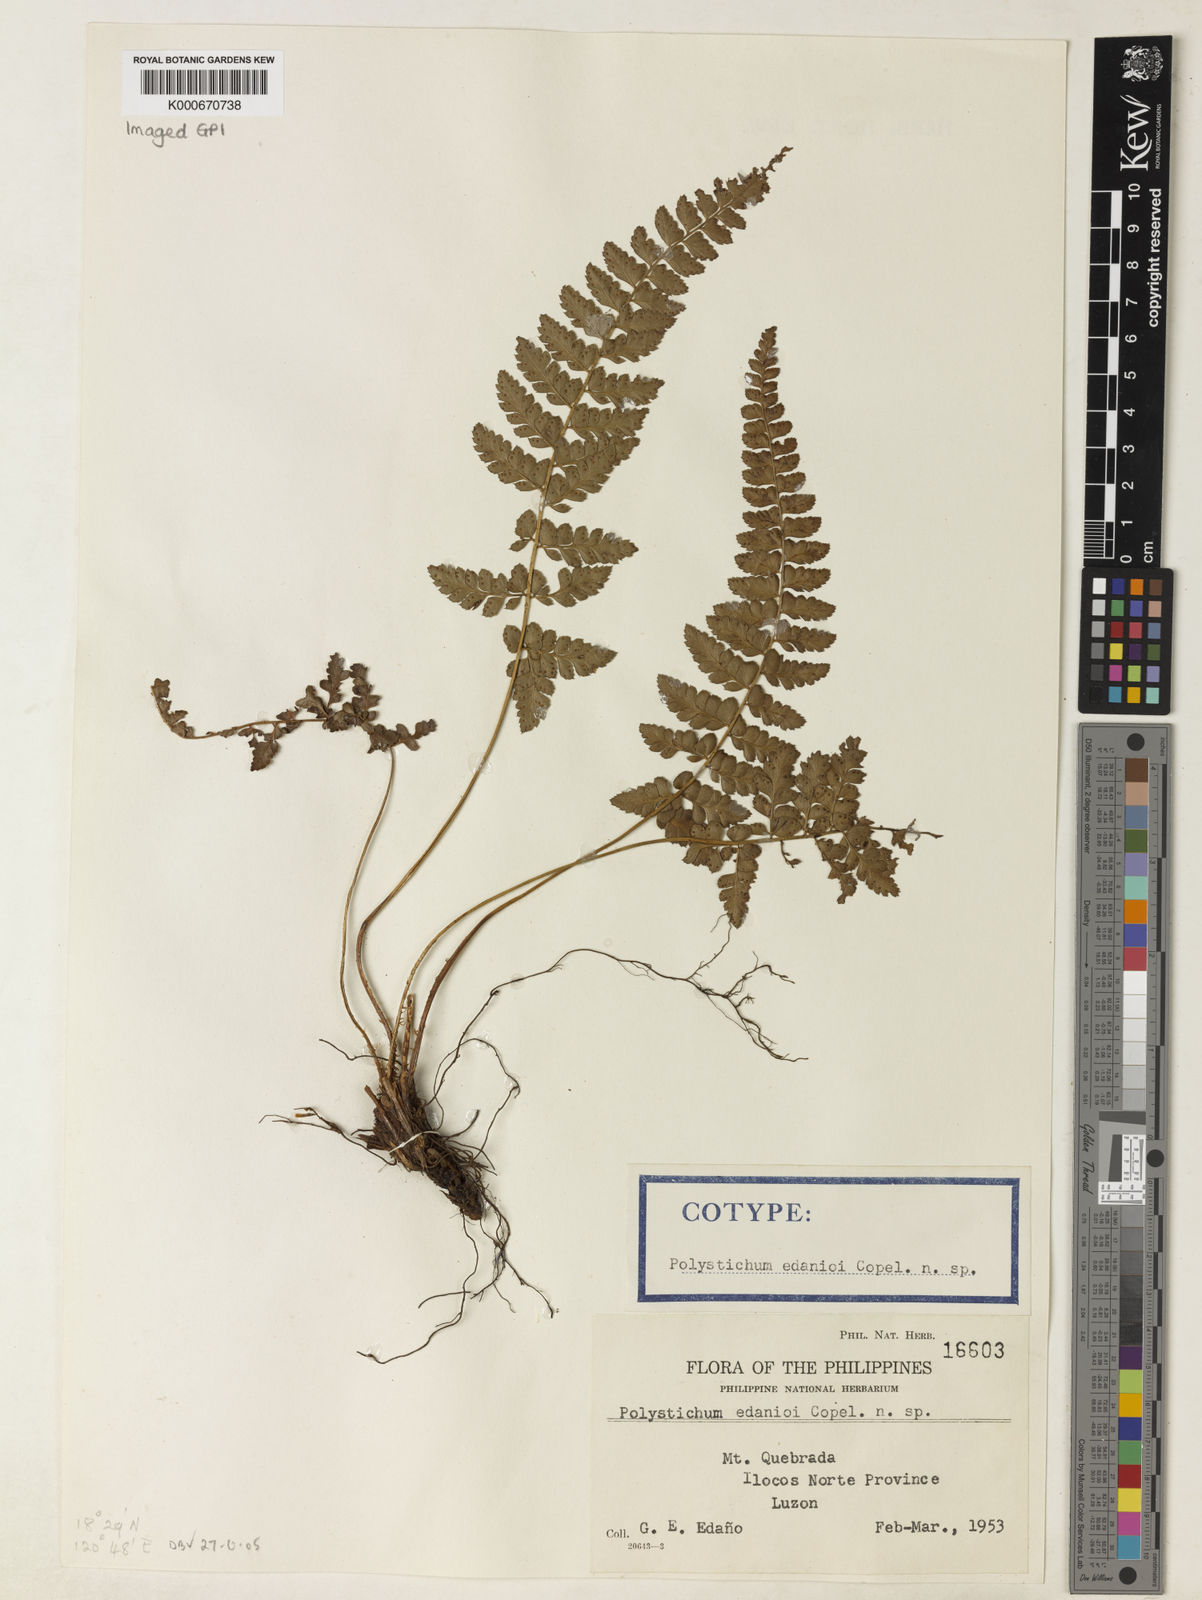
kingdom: Plantae
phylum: Tracheophyta
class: Polypodiopsida
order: Polypodiales
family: Dryopteridaceae
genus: Polystichum
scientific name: Polystichum obtusum
